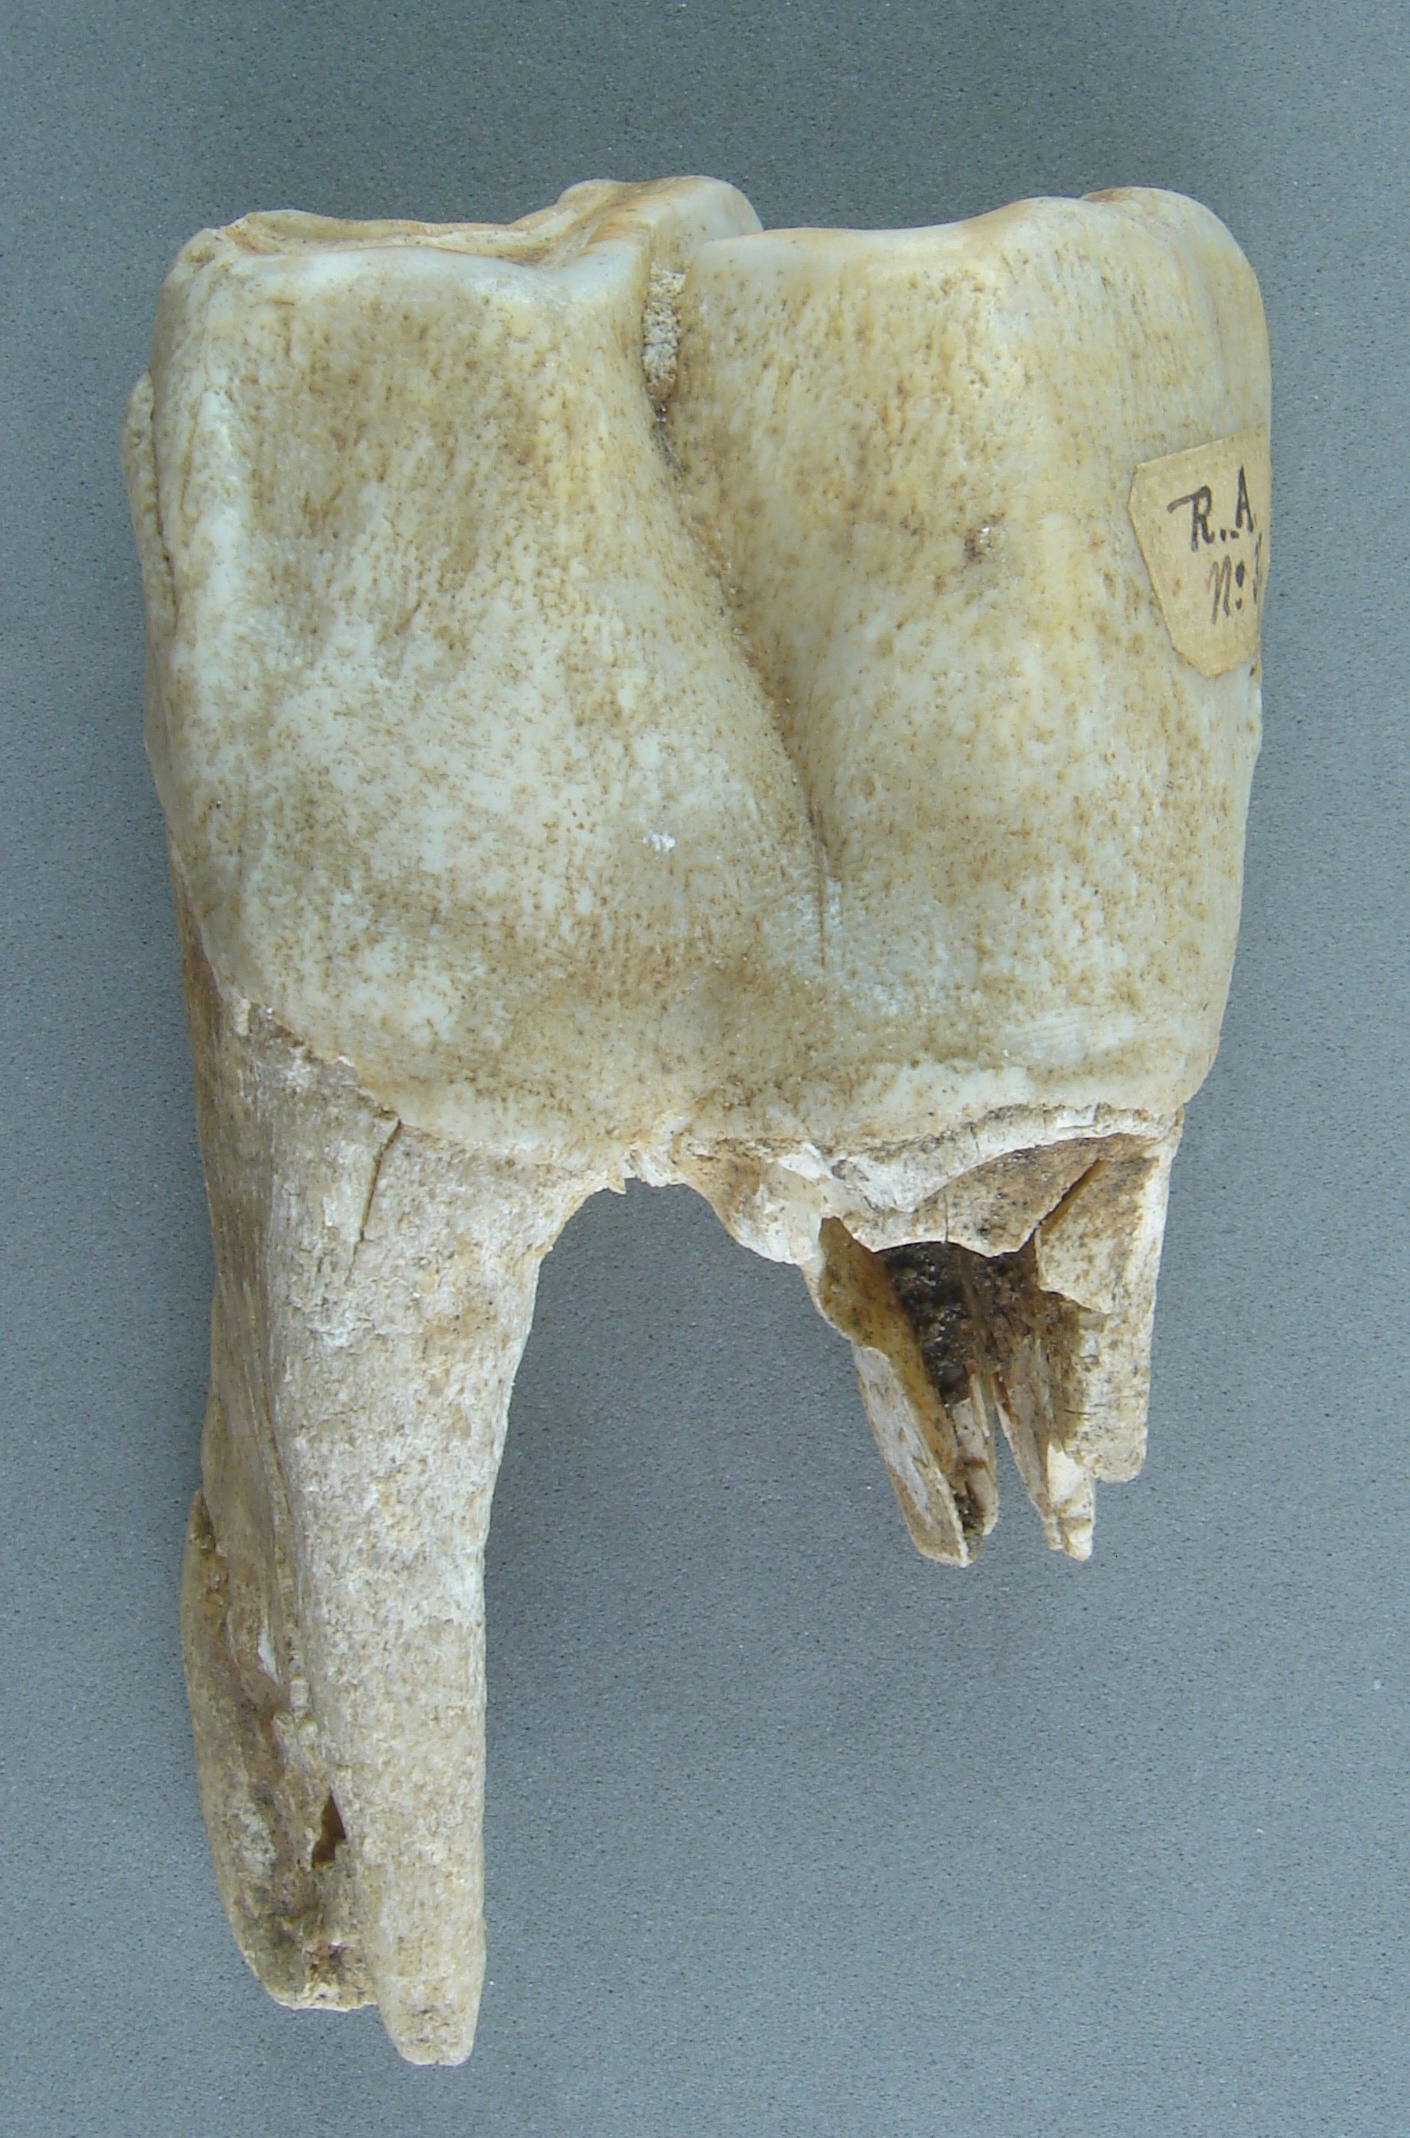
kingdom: Animalia
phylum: Chordata
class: Mammalia
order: Perissodactyla
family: Rhinocerotidae
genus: Rhinoceros
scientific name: Rhinoceros
